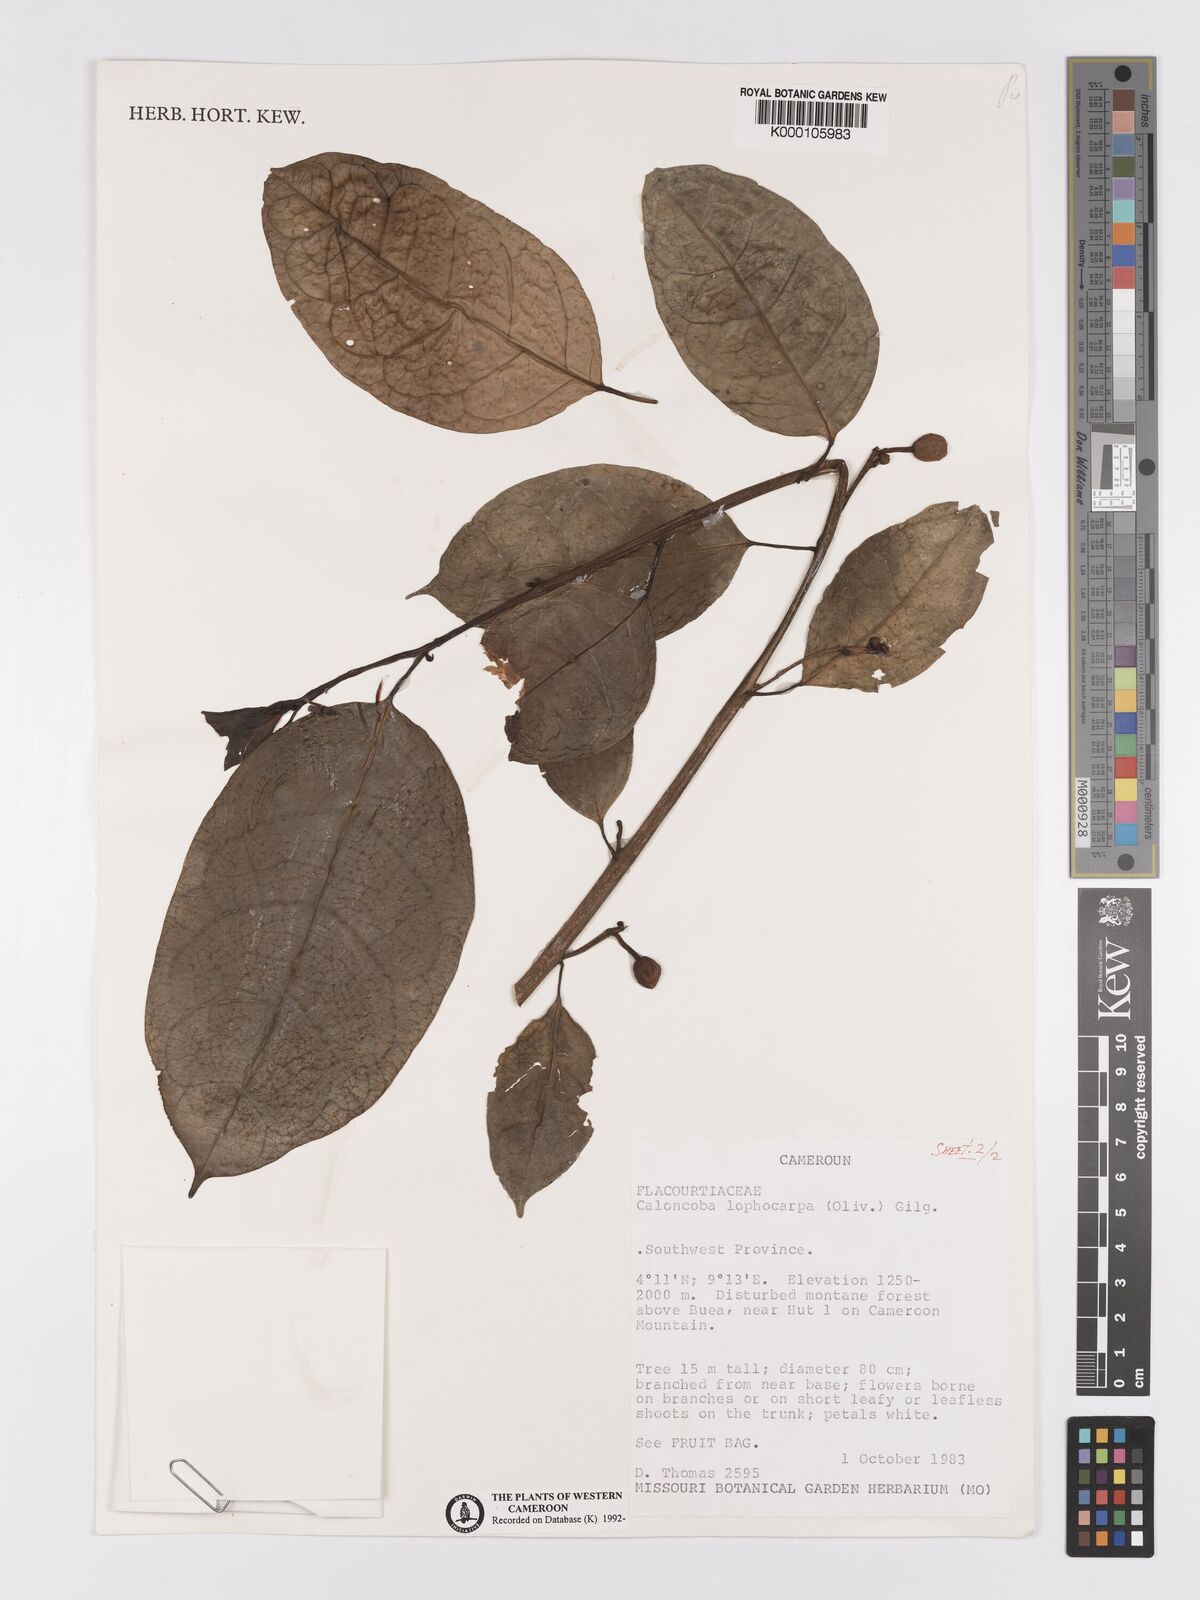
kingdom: Plantae
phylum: Tracheophyta
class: Magnoliopsida
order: Malpighiales
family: Achariaceae
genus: Caloncoba
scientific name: Caloncoba lophocarpa
